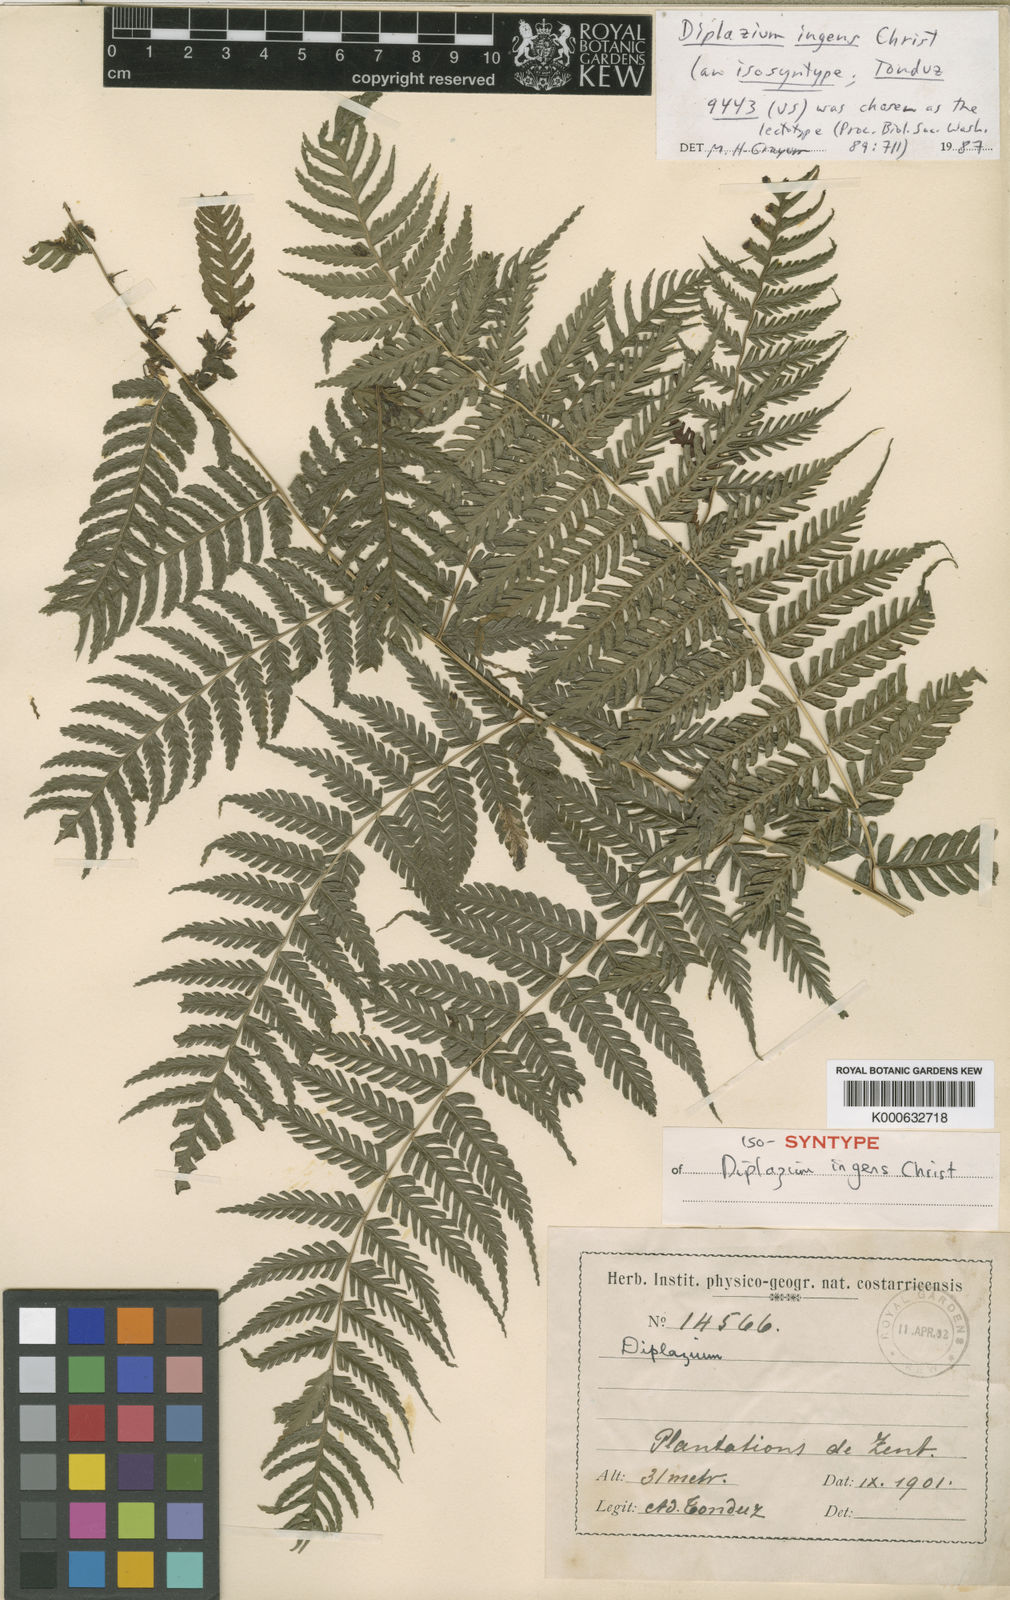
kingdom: Plantae
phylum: Tracheophyta
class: Polypodiopsida
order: Polypodiales
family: Athyriaceae
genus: Diplazium
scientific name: Diplazium ingens
